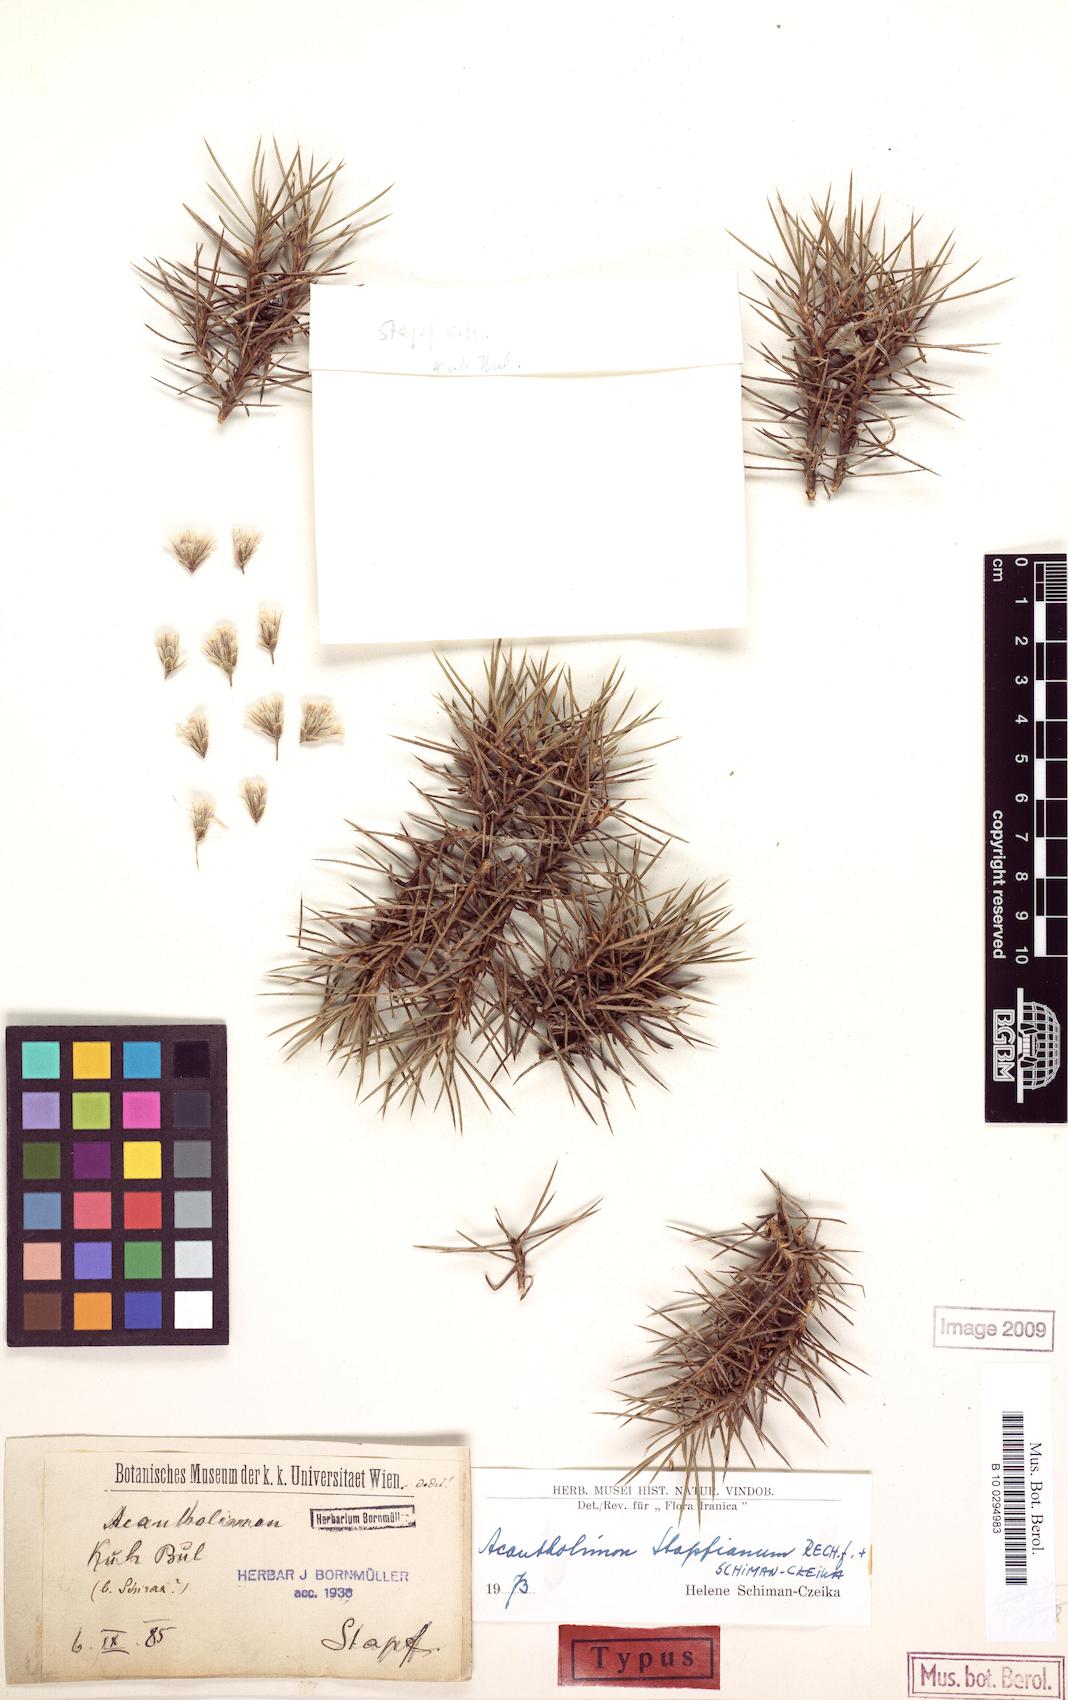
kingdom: Plantae
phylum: Tracheophyta
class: Magnoliopsida
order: Caryophyllales
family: Plumbaginaceae
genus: Acantholimon
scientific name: Acantholimon stapfianum
